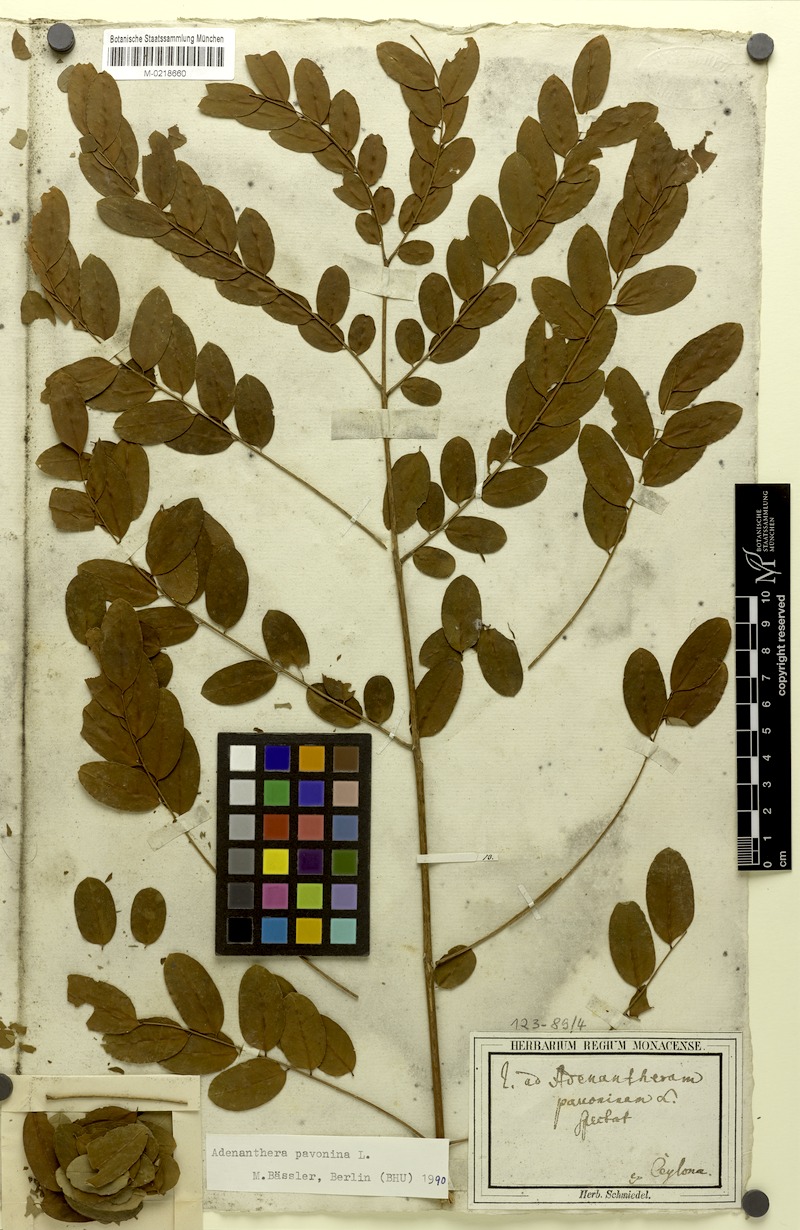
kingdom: Plantae
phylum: Tracheophyta
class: Magnoliopsida
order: Fabales
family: Fabaceae
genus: Adenanthera
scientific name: Adenanthera pavonina
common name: Red beadtree
